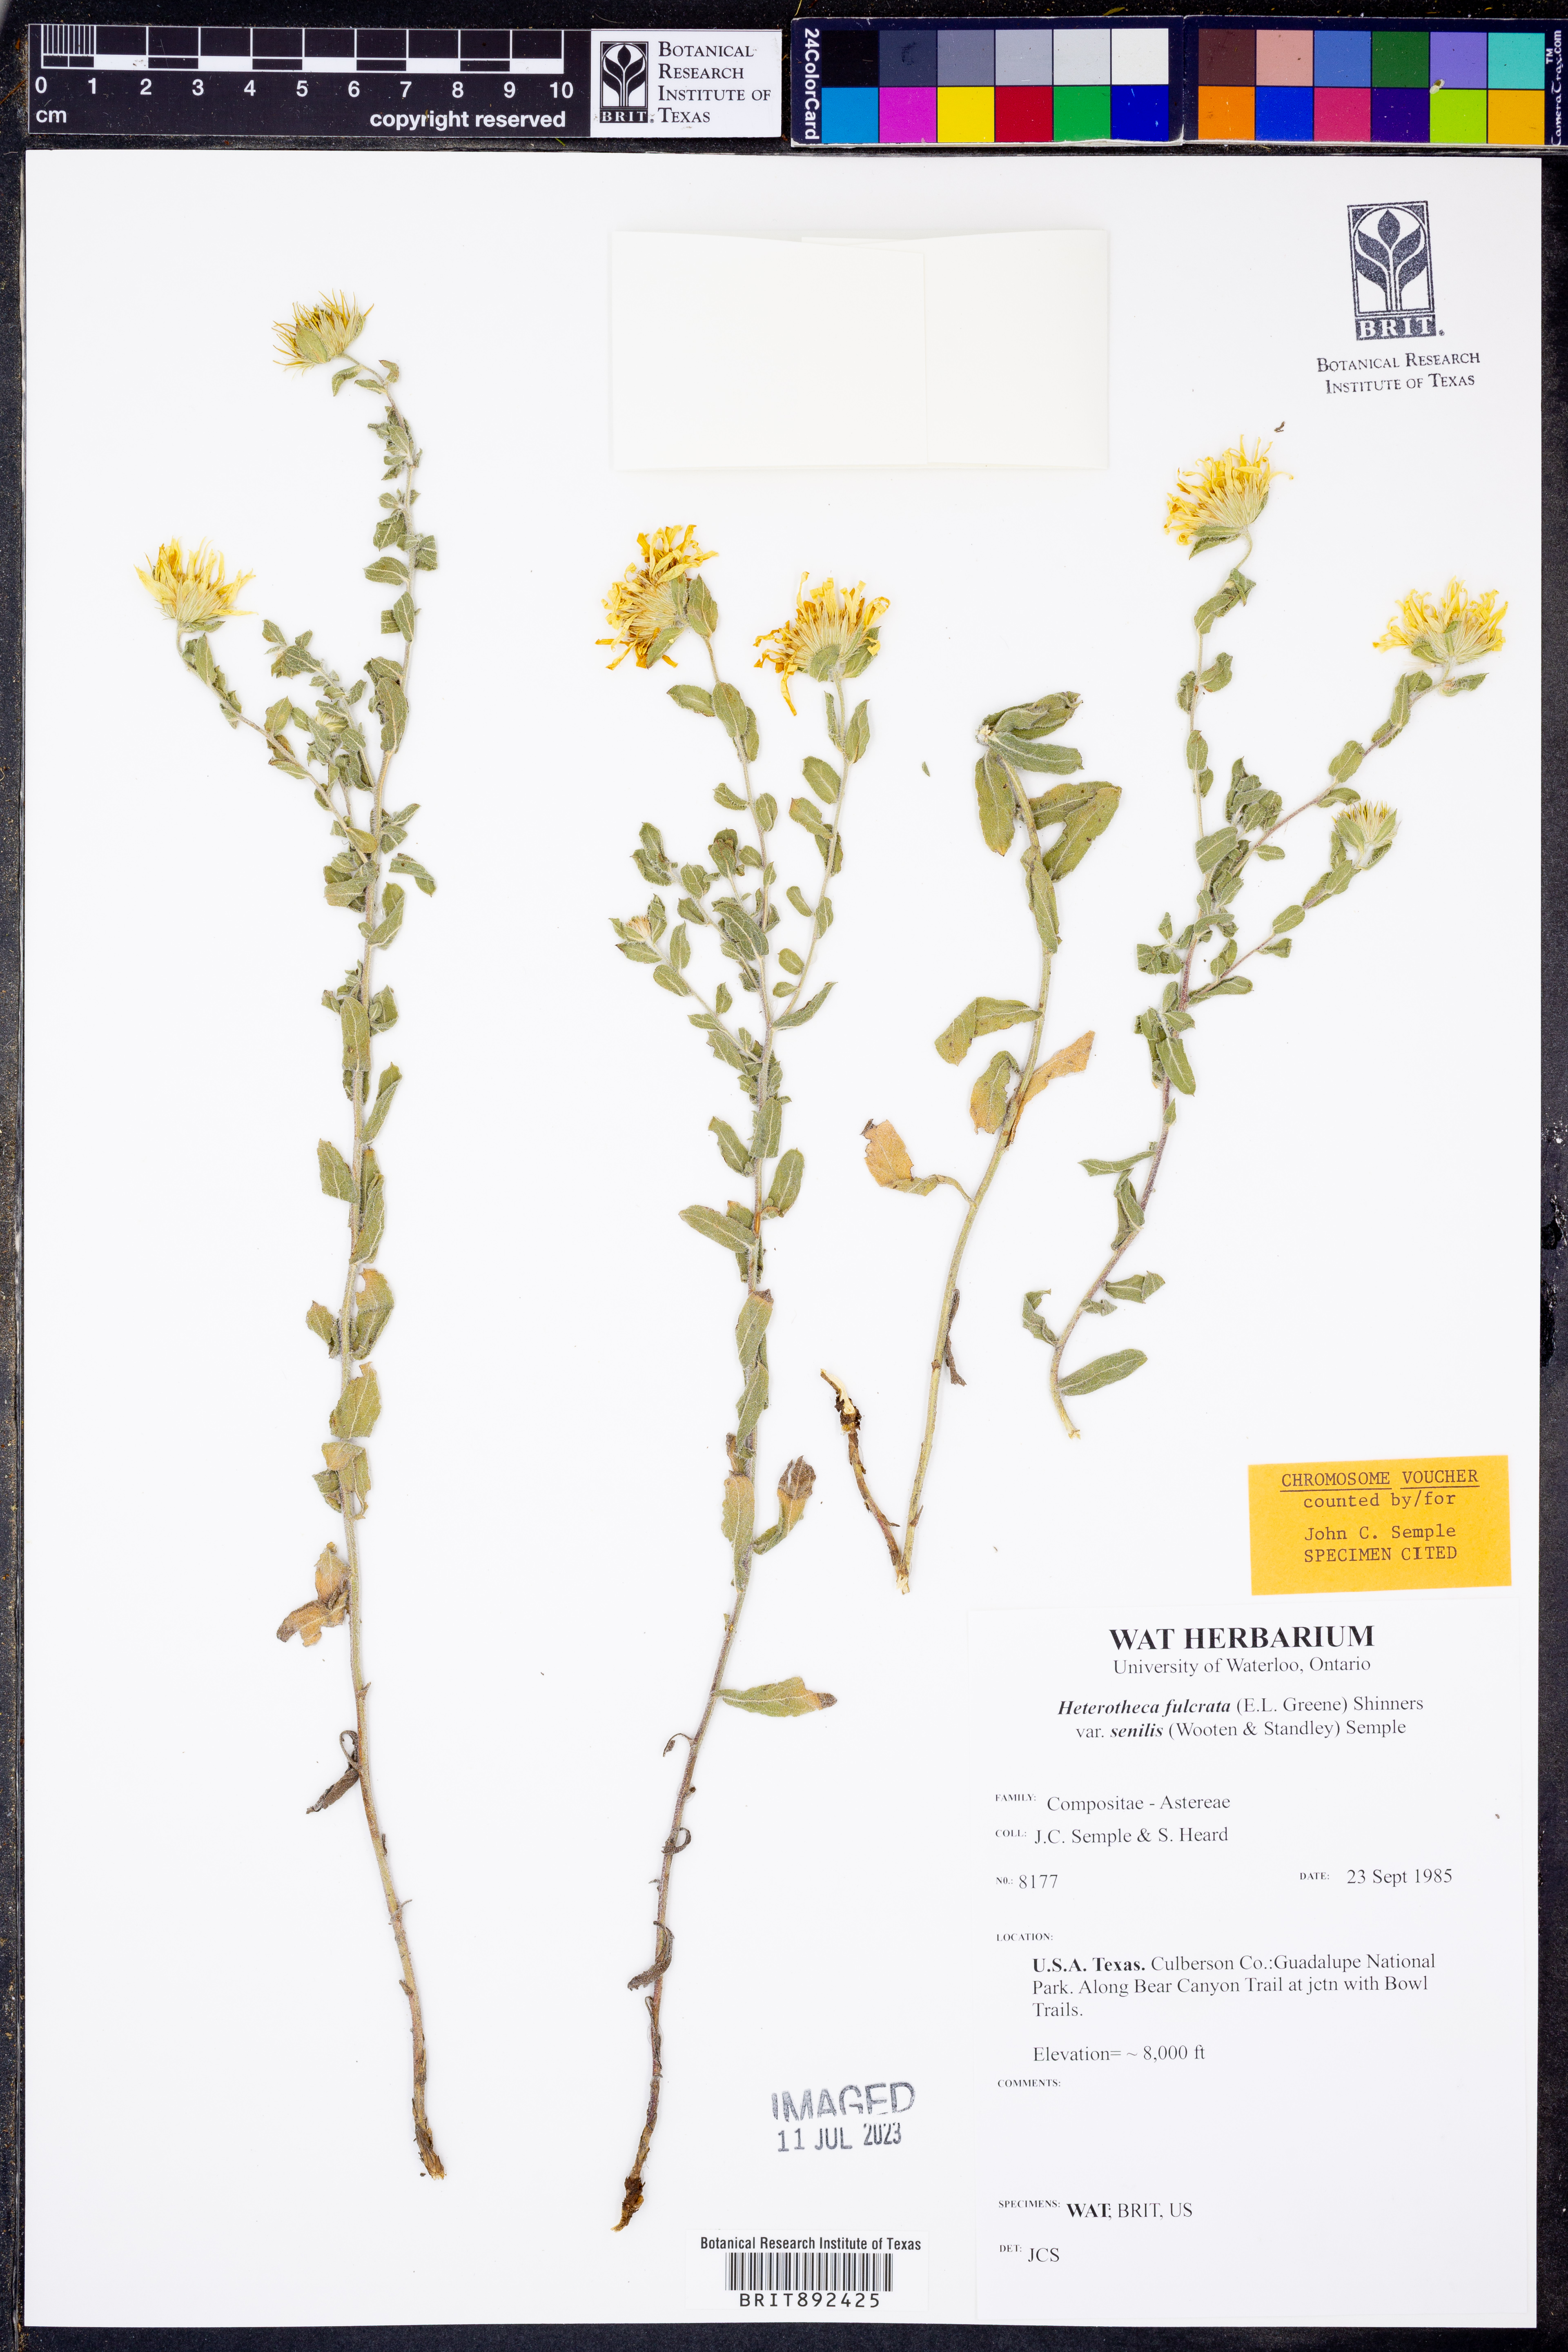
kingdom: Plantae
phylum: Tracheophyta
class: Magnoliopsida
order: Asterales
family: Asteraceae
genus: Heterotheca
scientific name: Heterotheca fulcrata
